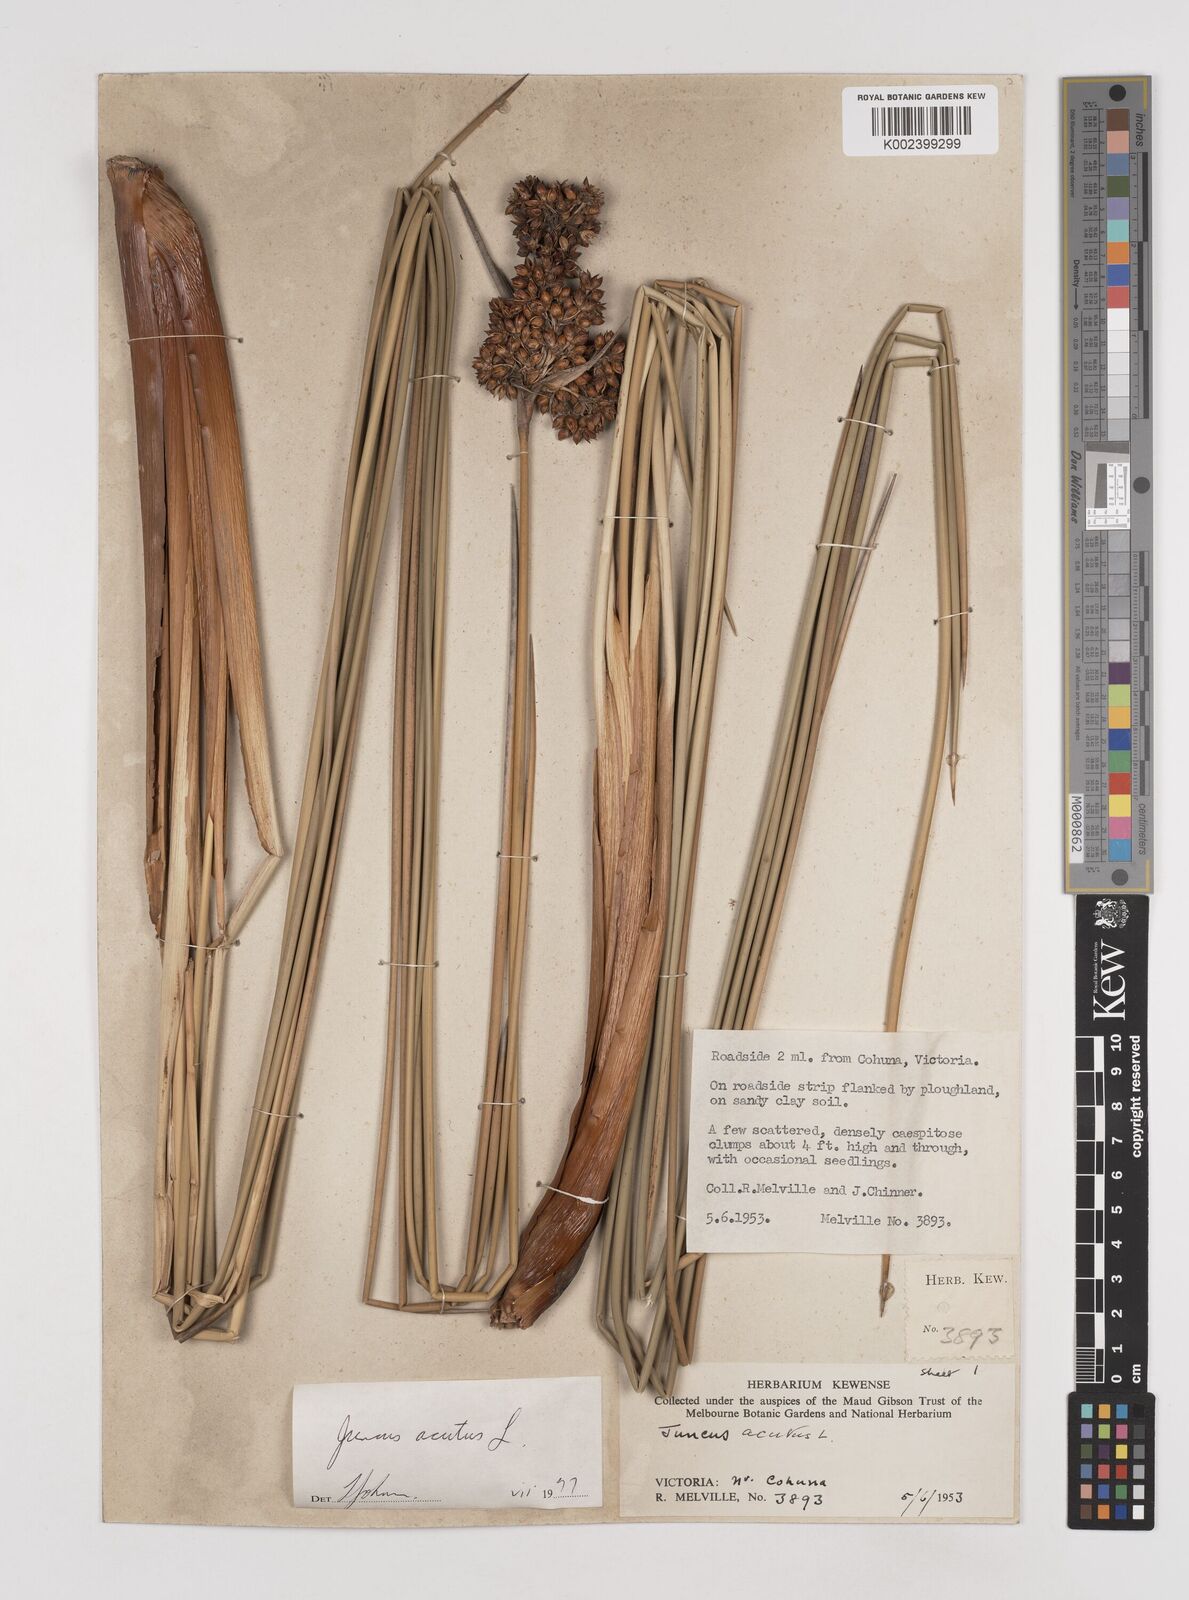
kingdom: Plantae
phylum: Tracheophyta
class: Liliopsida
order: Poales
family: Juncaceae
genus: Juncus
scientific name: Juncus acutus
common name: Sharp rush
